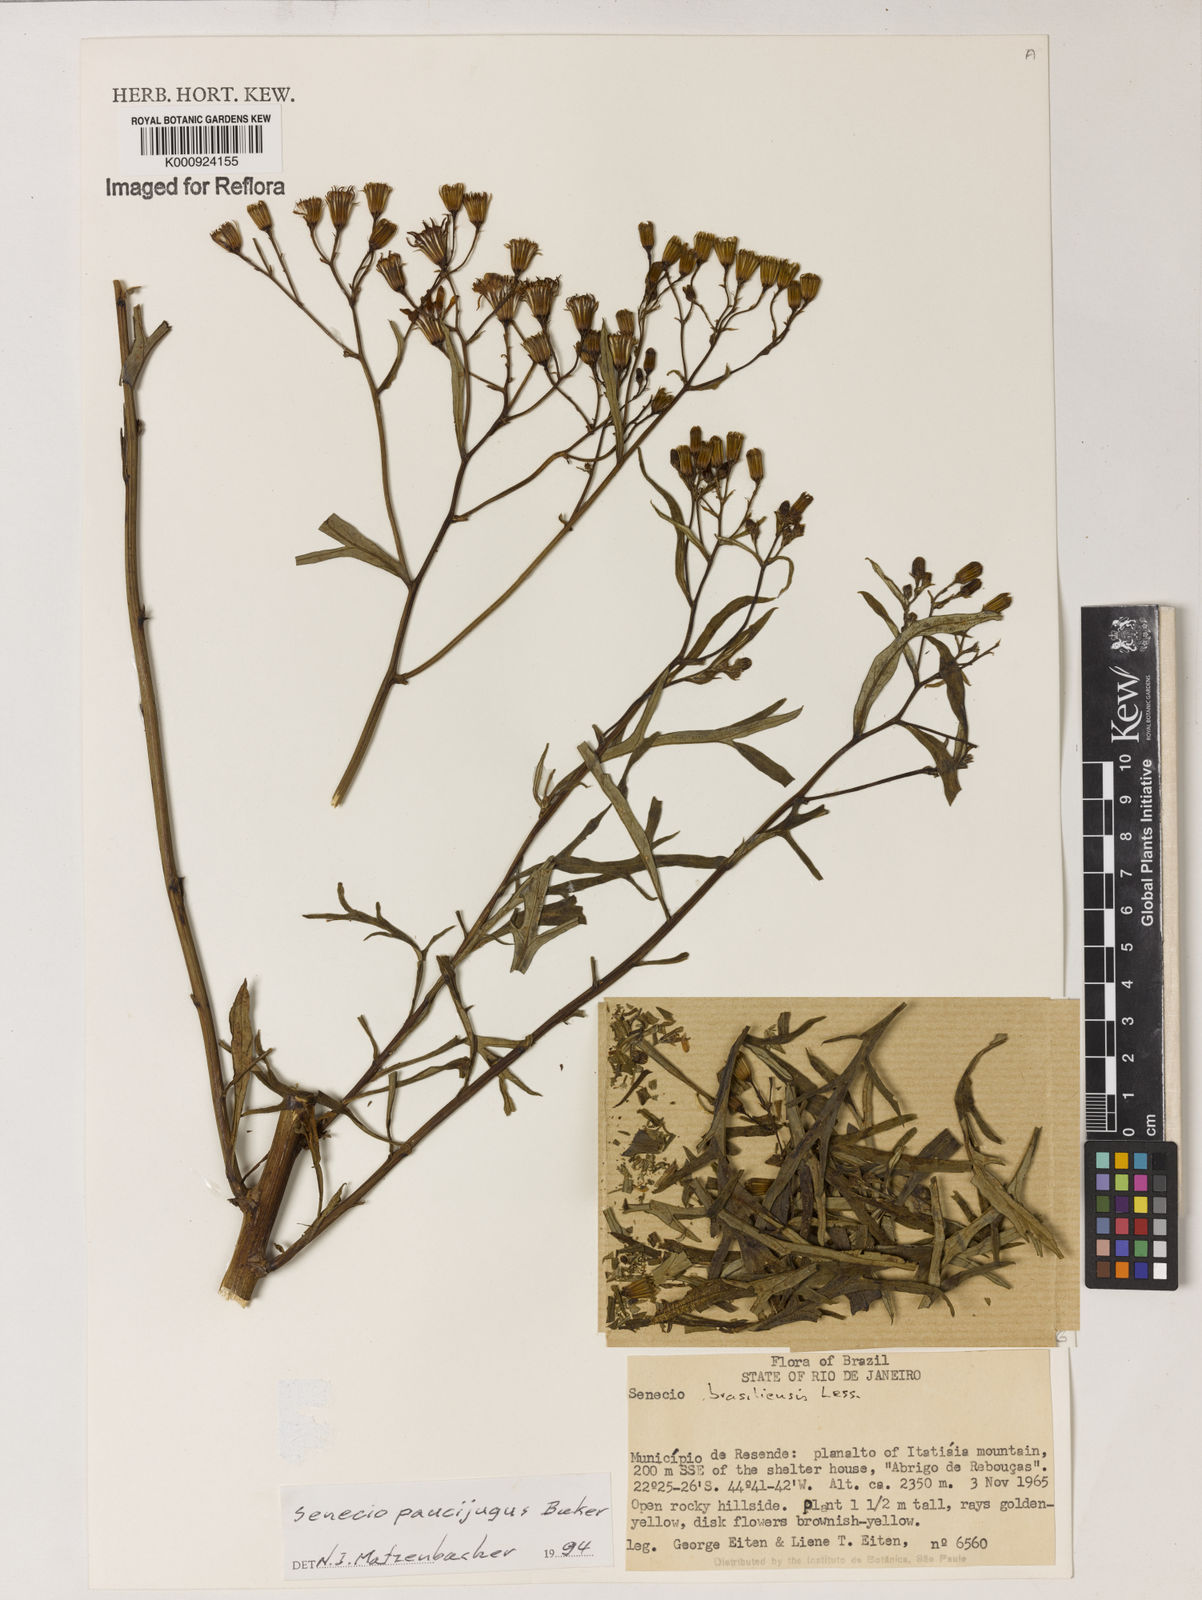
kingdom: Plantae
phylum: Tracheophyta
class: Magnoliopsida
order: Asterales
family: Asteraceae
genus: Senecio
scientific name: Senecio paucijugus
